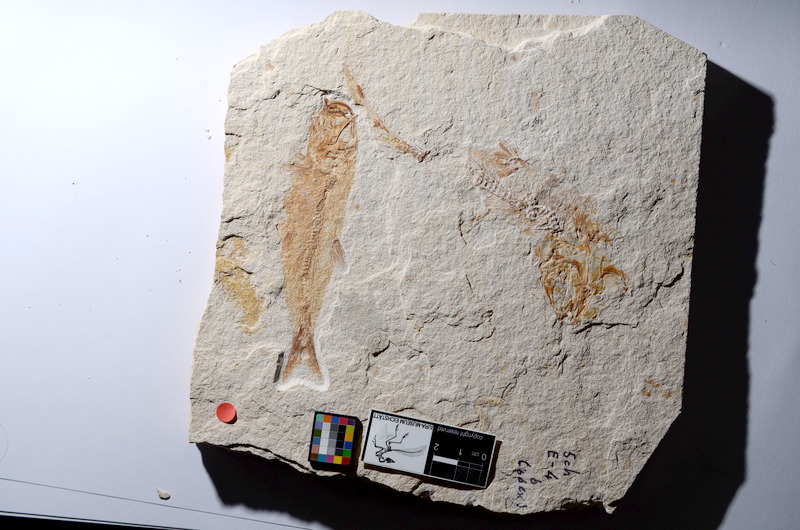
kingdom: Animalia
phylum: Chordata
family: Ascalaboidae
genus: Tharsis
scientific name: Tharsis dubius
